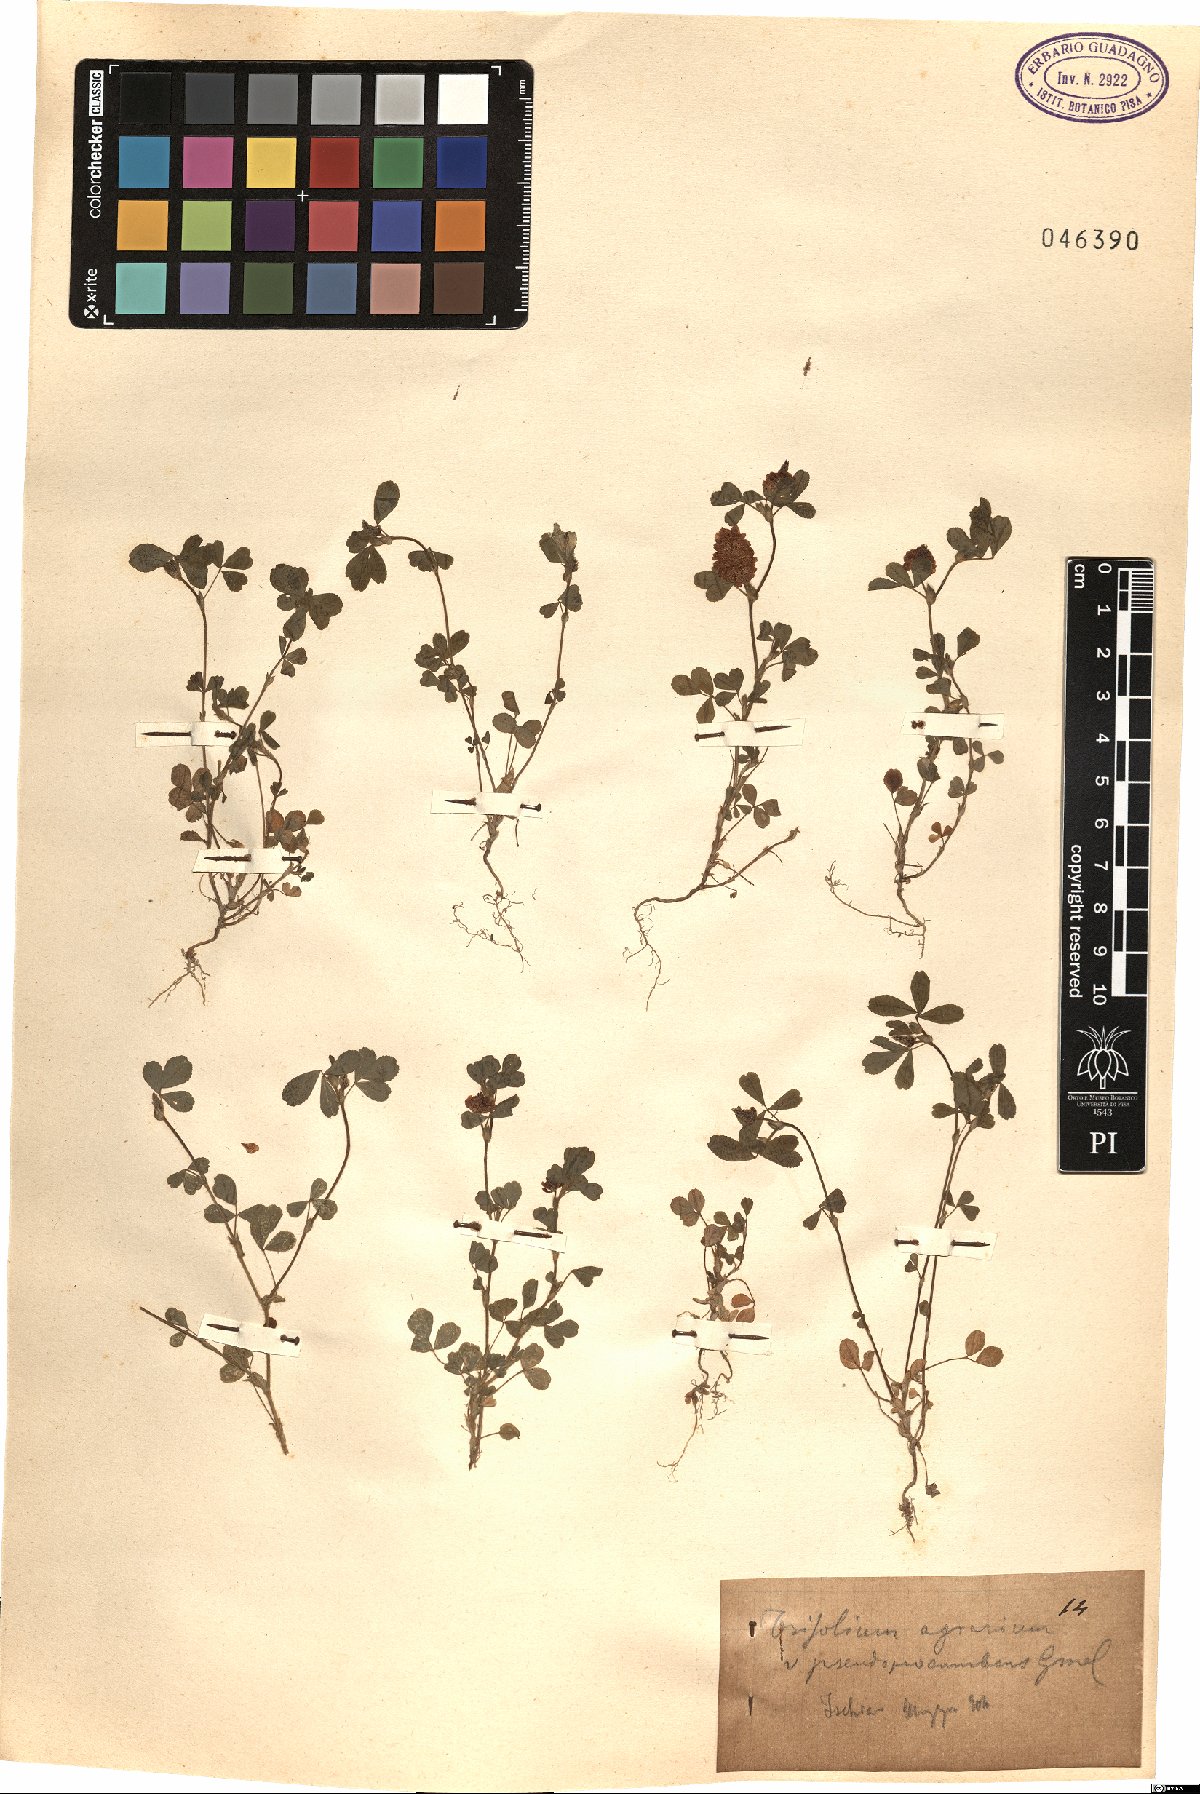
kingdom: Plantae
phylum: Tracheophyta
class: Magnoliopsida
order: Fabales
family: Fabaceae
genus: Trifolium
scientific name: Trifolium aureum
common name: Golden clover
